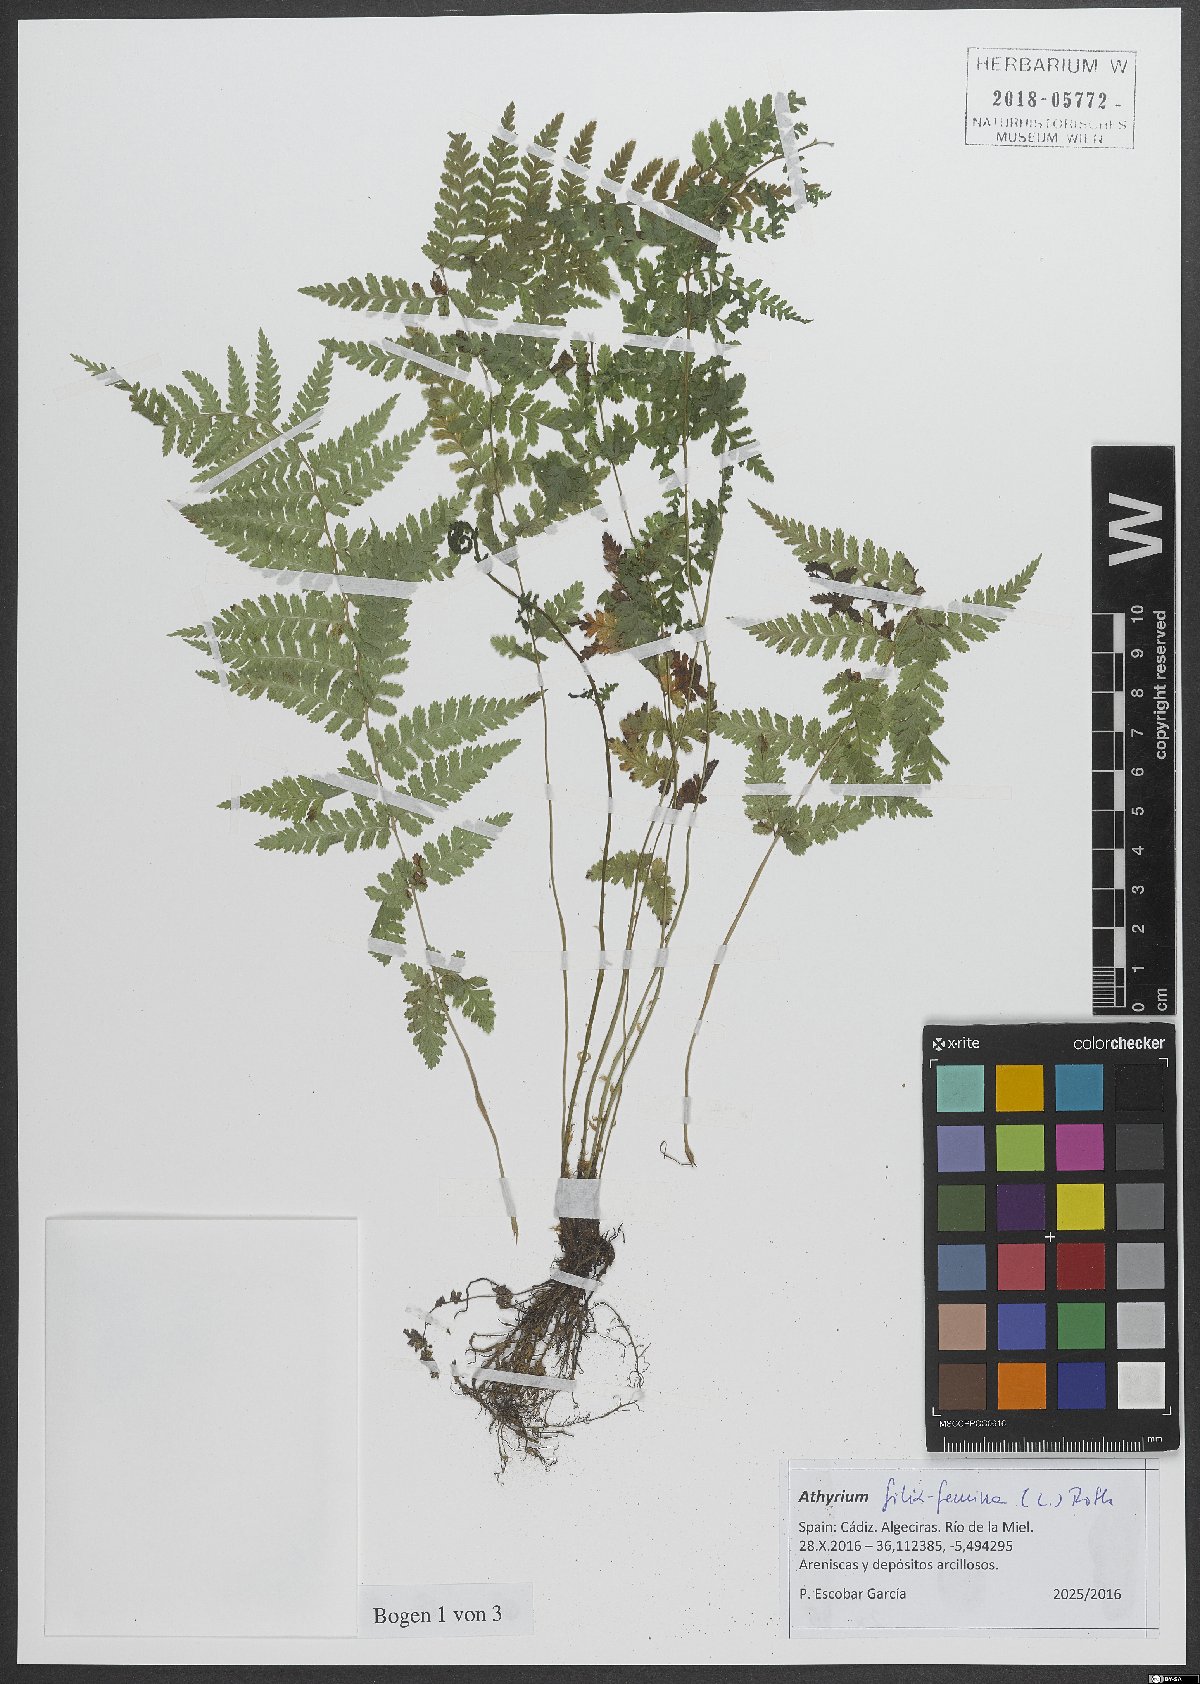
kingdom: Plantae
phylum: Tracheophyta
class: Polypodiopsida
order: Polypodiales
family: Athyriaceae
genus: Athyrium
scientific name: Athyrium filix-femina
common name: Lady fern
